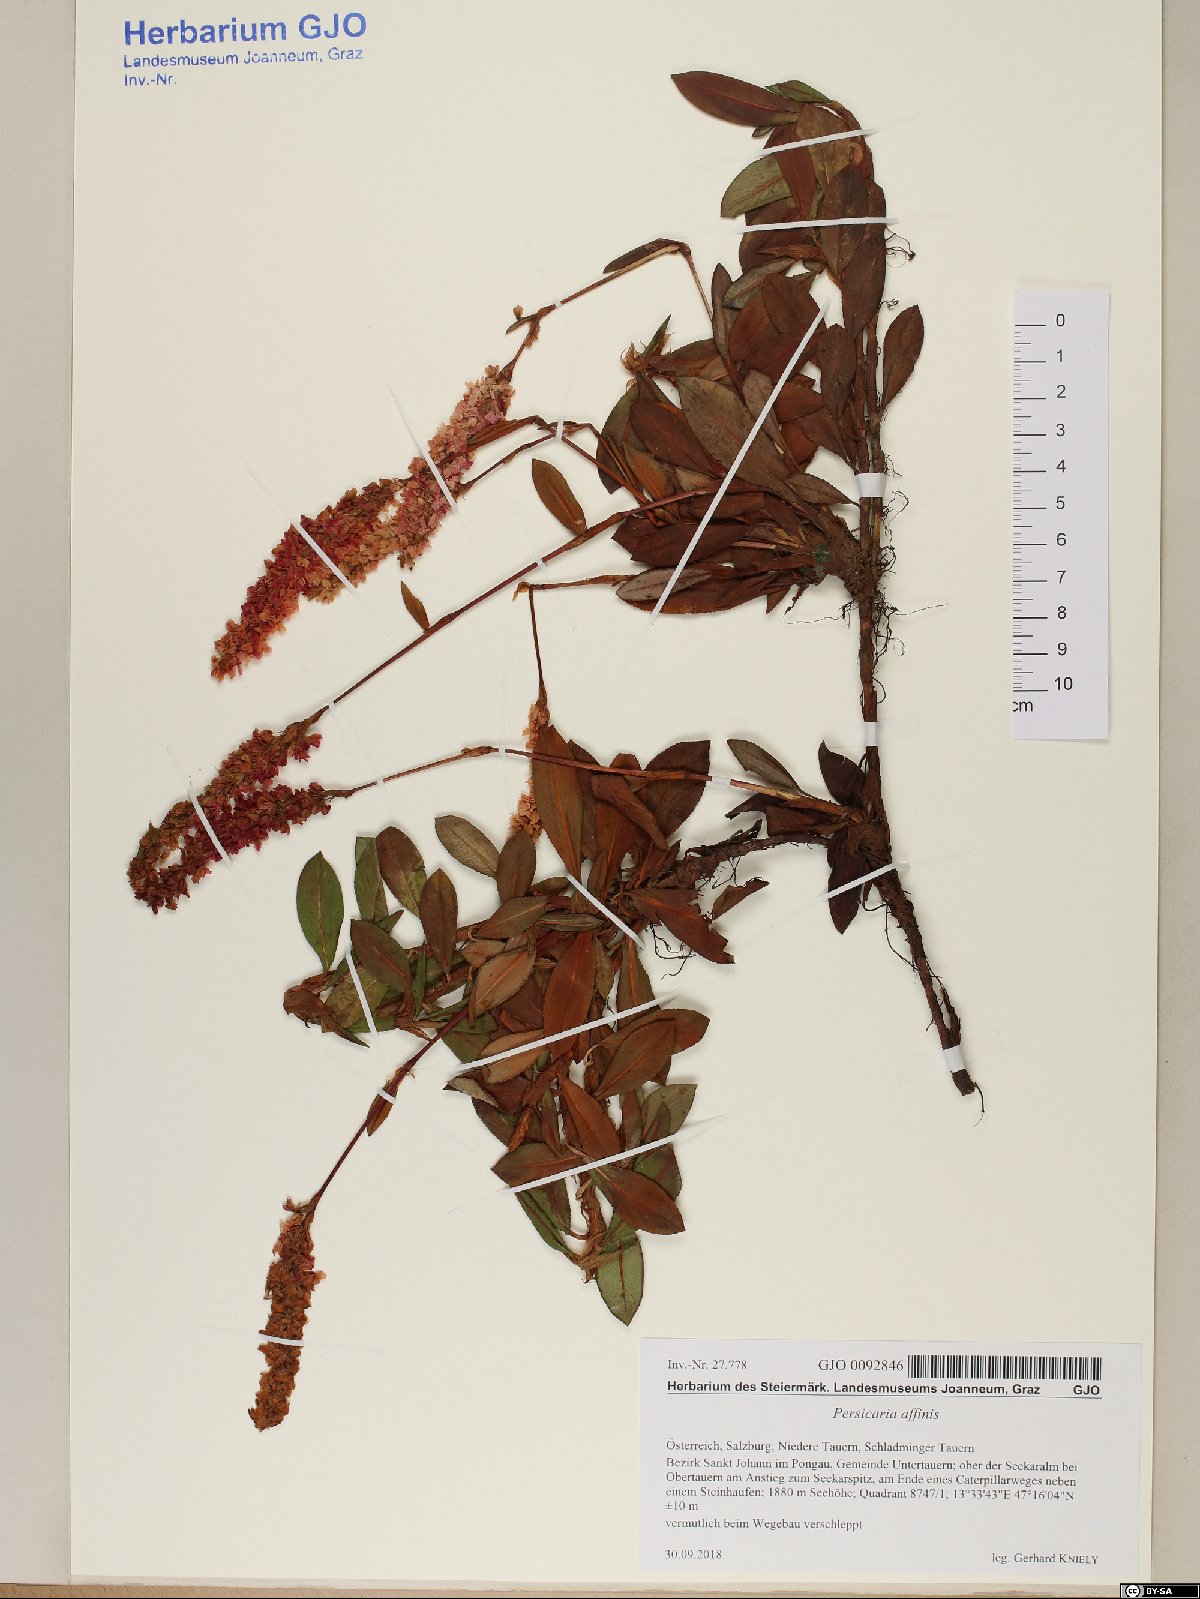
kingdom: Plantae
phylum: Tracheophyta
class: Magnoliopsida
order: Caryophyllales
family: Polygonaceae
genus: Bistorta
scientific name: Bistorta affinis
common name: Himalayan fleeceflower
